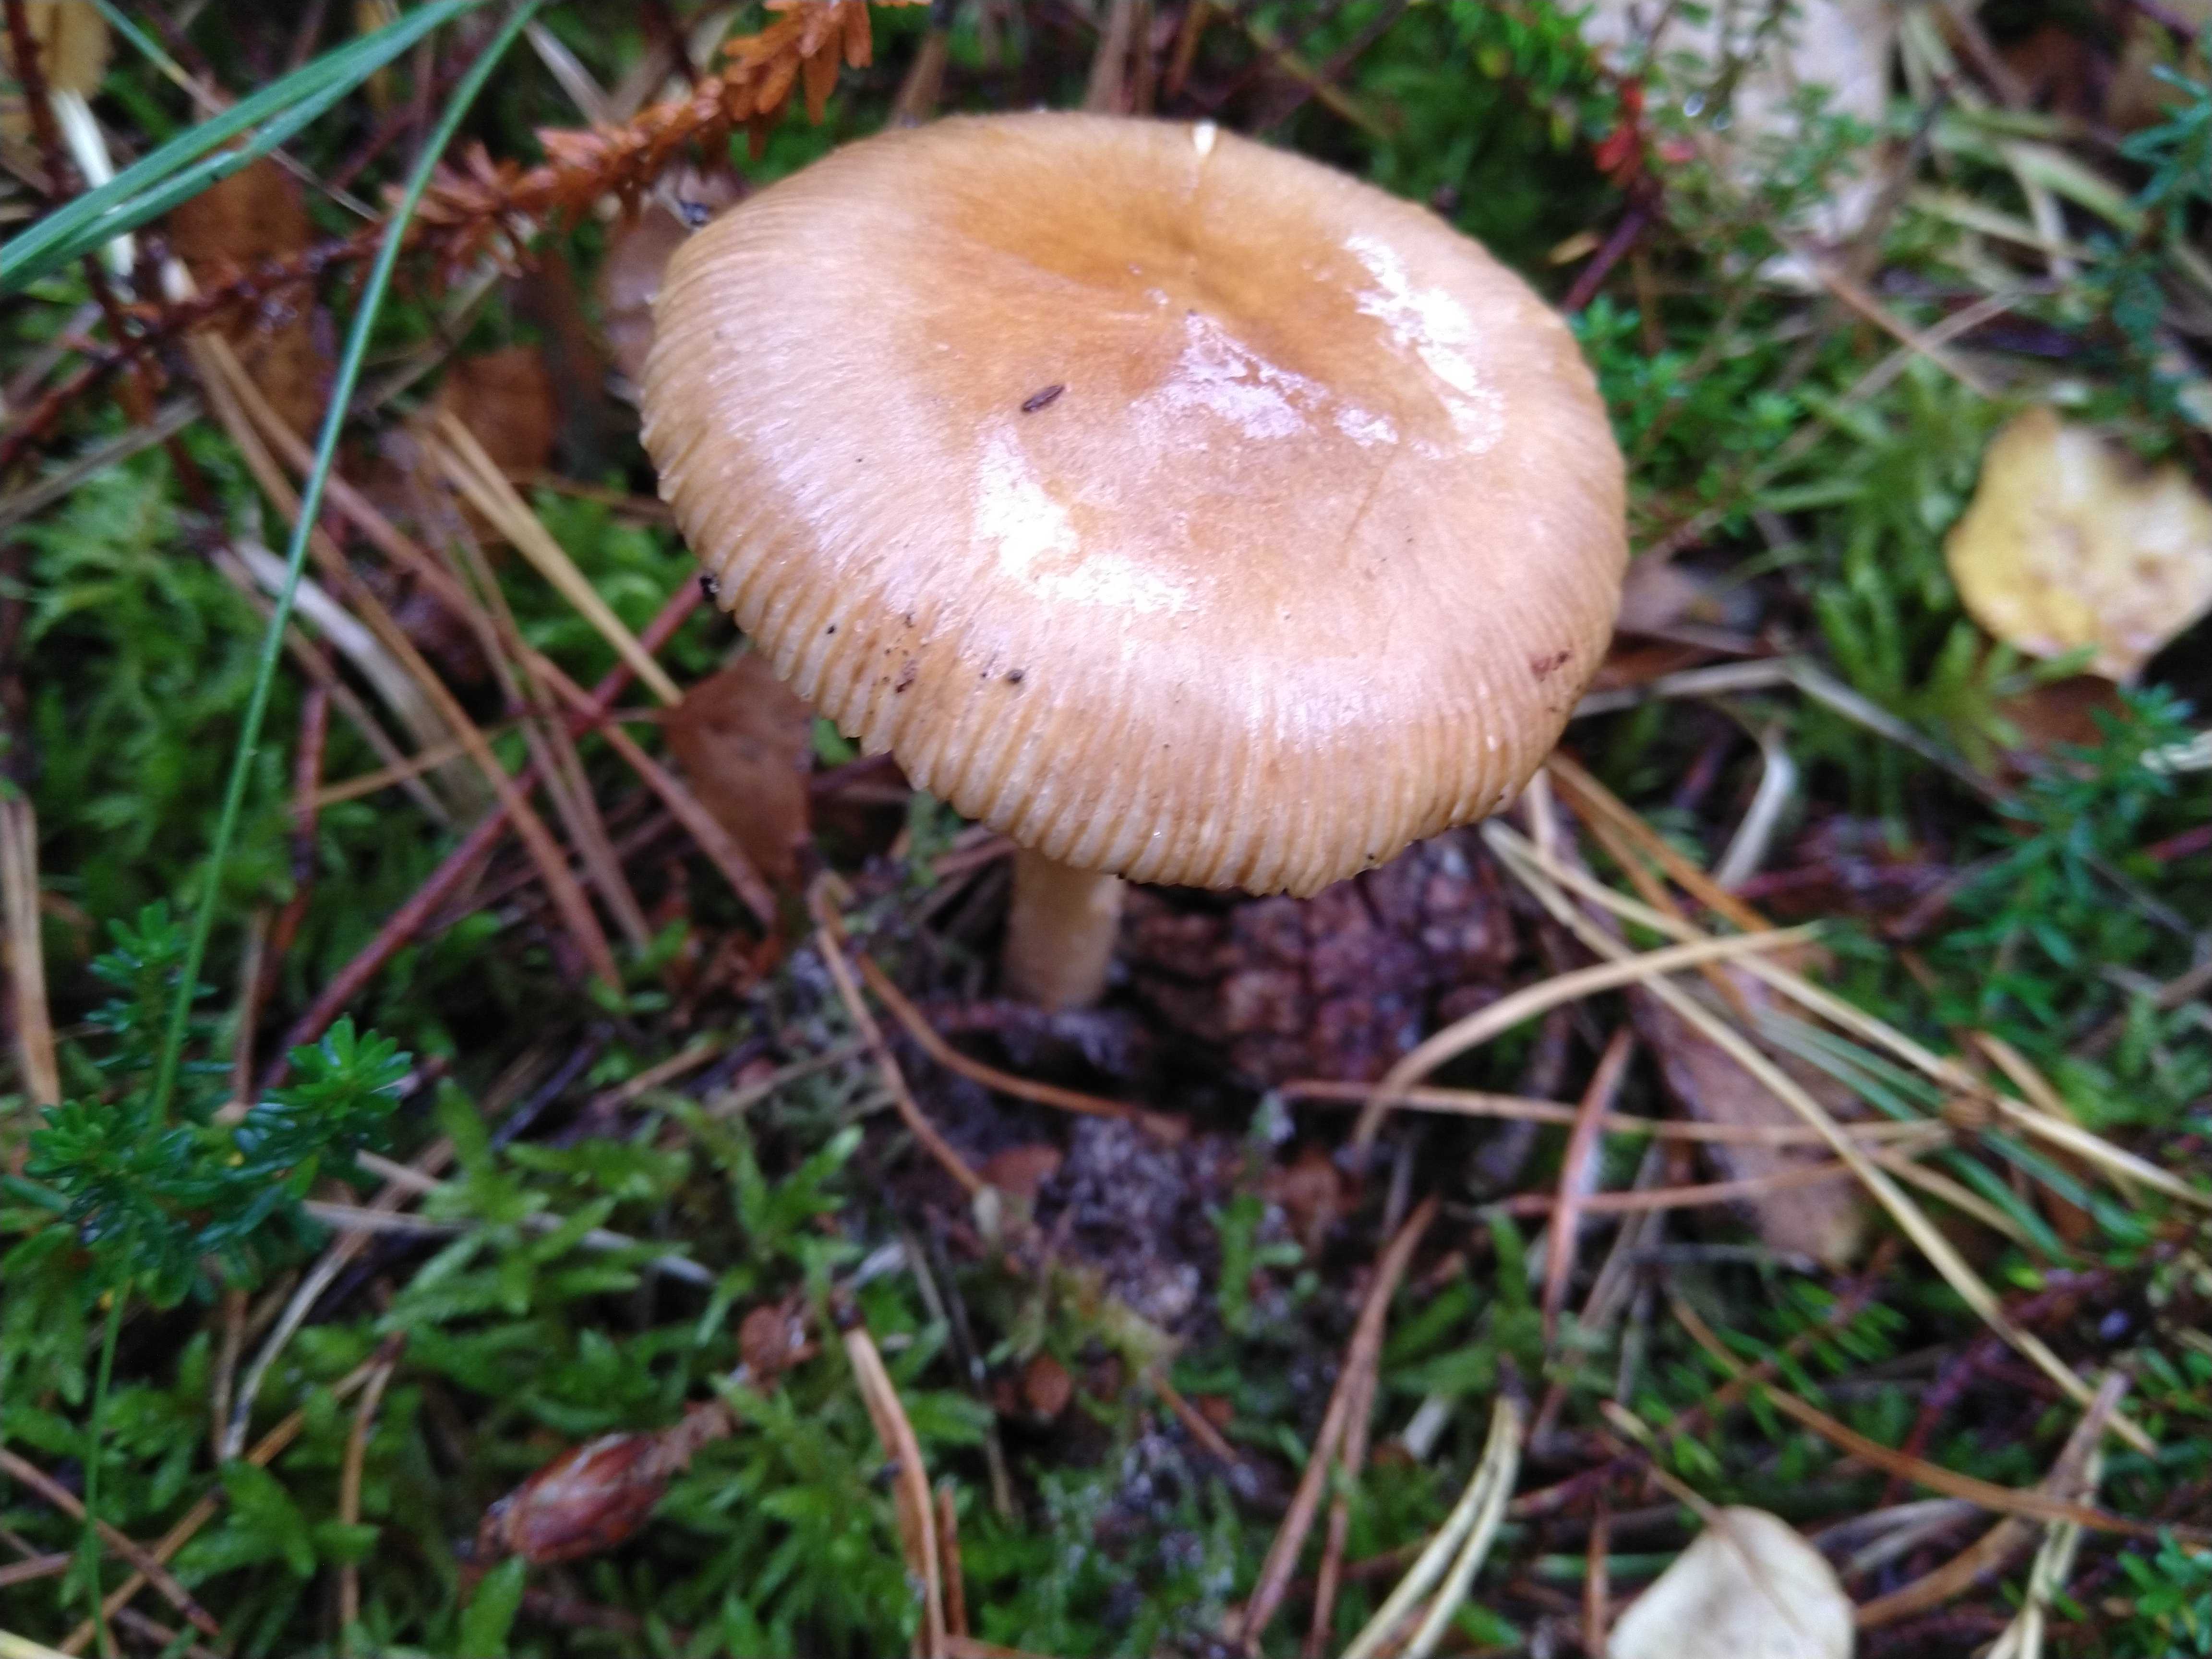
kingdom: Fungi
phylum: Basidiomycota
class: Agaricomycetes
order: Agaricales
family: Amanitaceae
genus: Amanita
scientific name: Amanita fulva
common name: brun kam-fluesvamp
